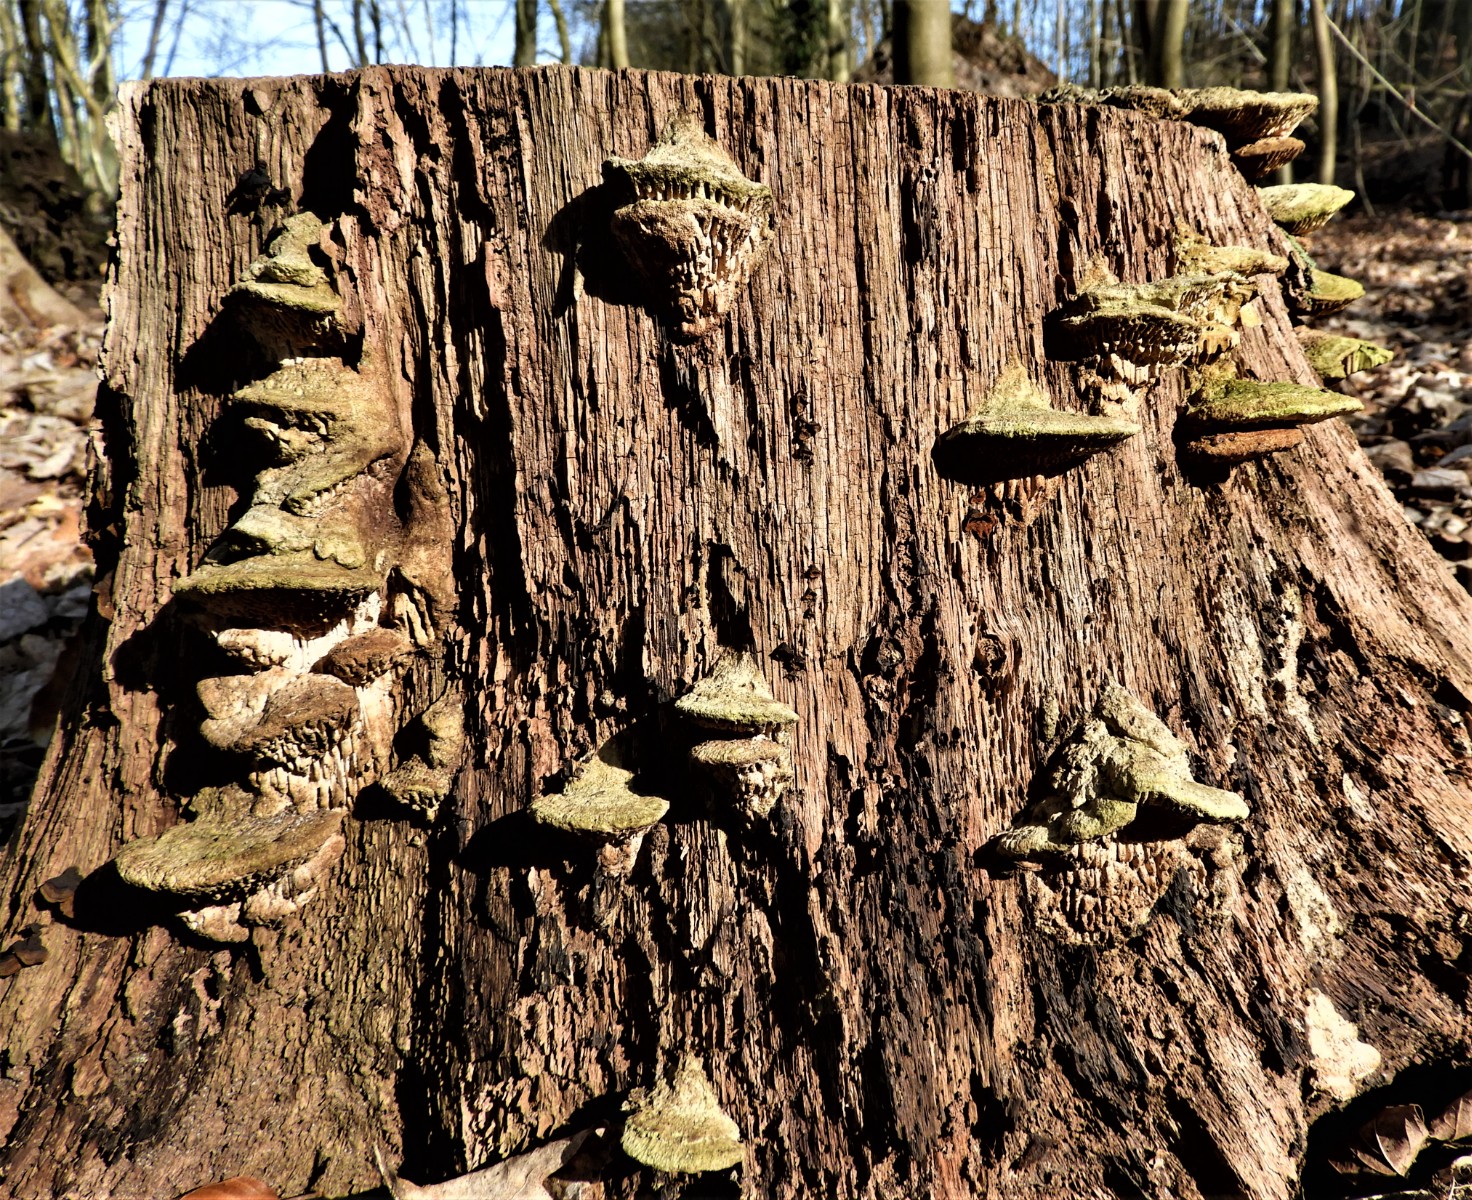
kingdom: Fungi
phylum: Basidiomycota
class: Agaricomycetes
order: Polyporales
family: Fomitopsidaceae
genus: Daedalea
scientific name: Daedalea quercina
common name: ege-labyrintsvamp
